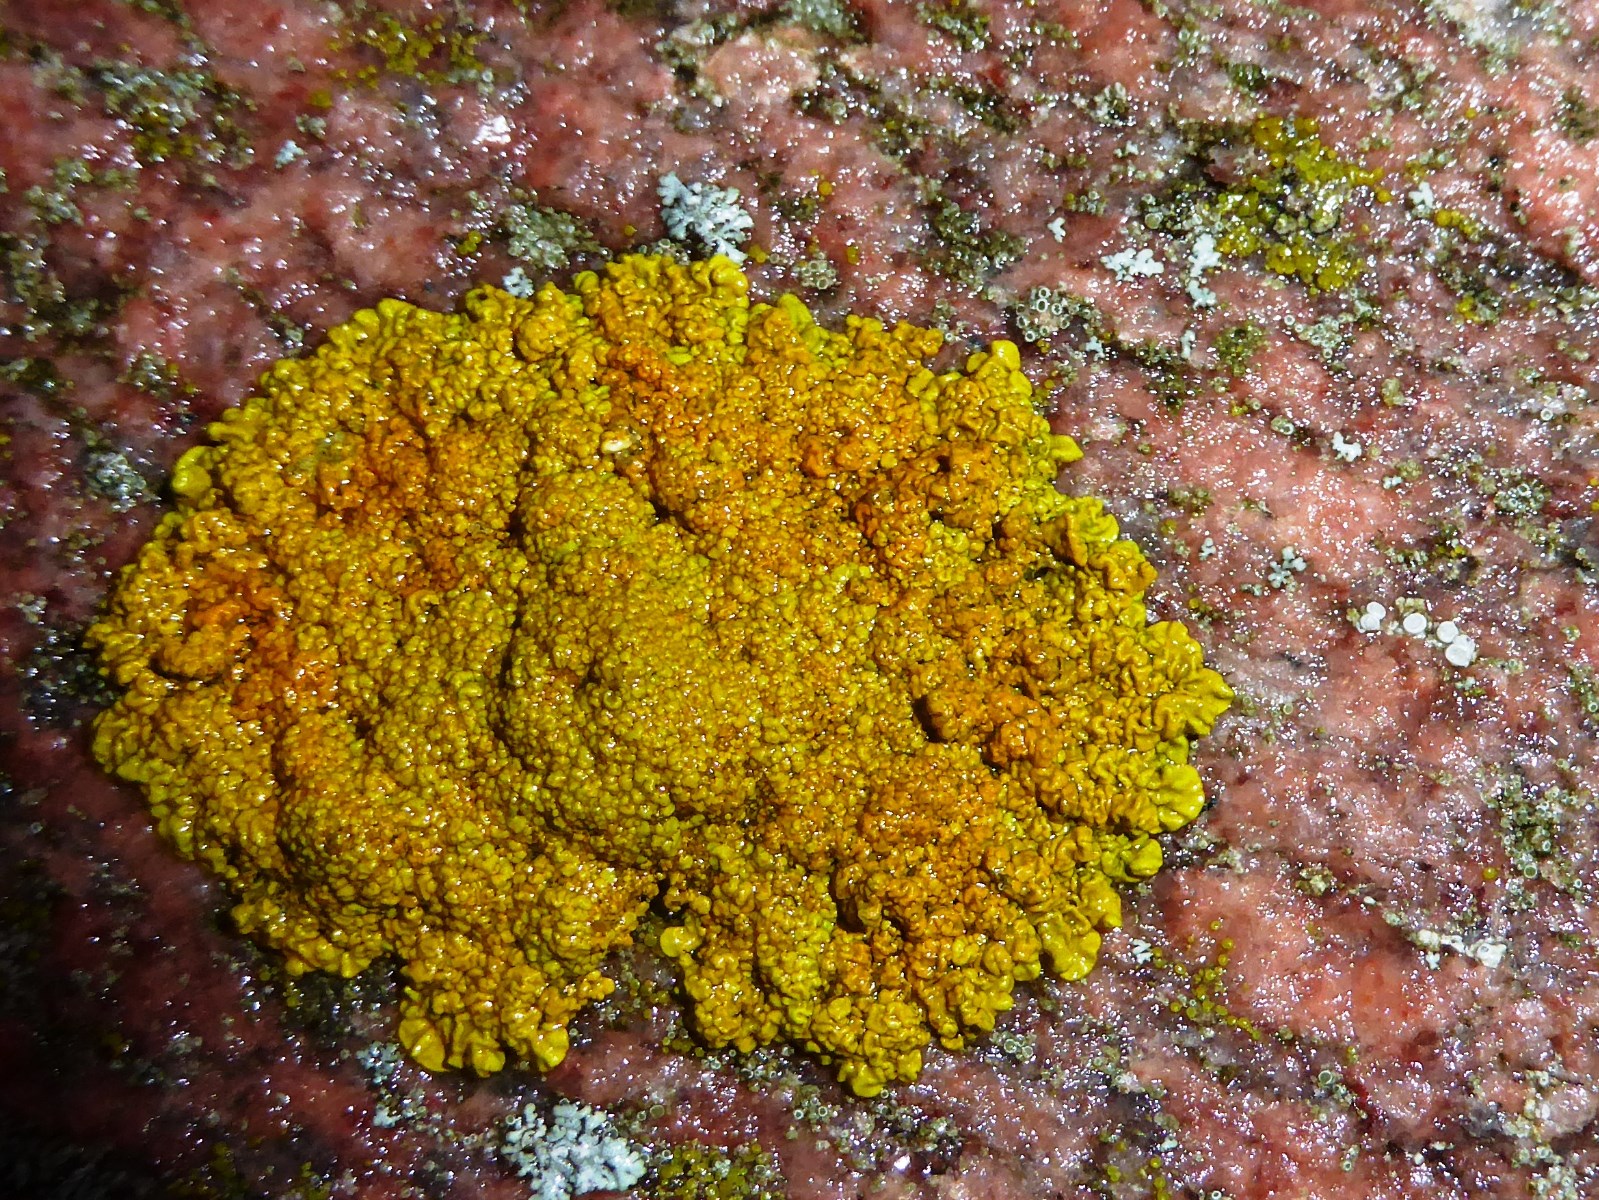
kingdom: Fungi
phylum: Ascomycota
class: Lecanoromycetes
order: Teloschistales
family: Teloschistaceae
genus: Xanthoria
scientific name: Xanthoria calcicola
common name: vortet væggelav
